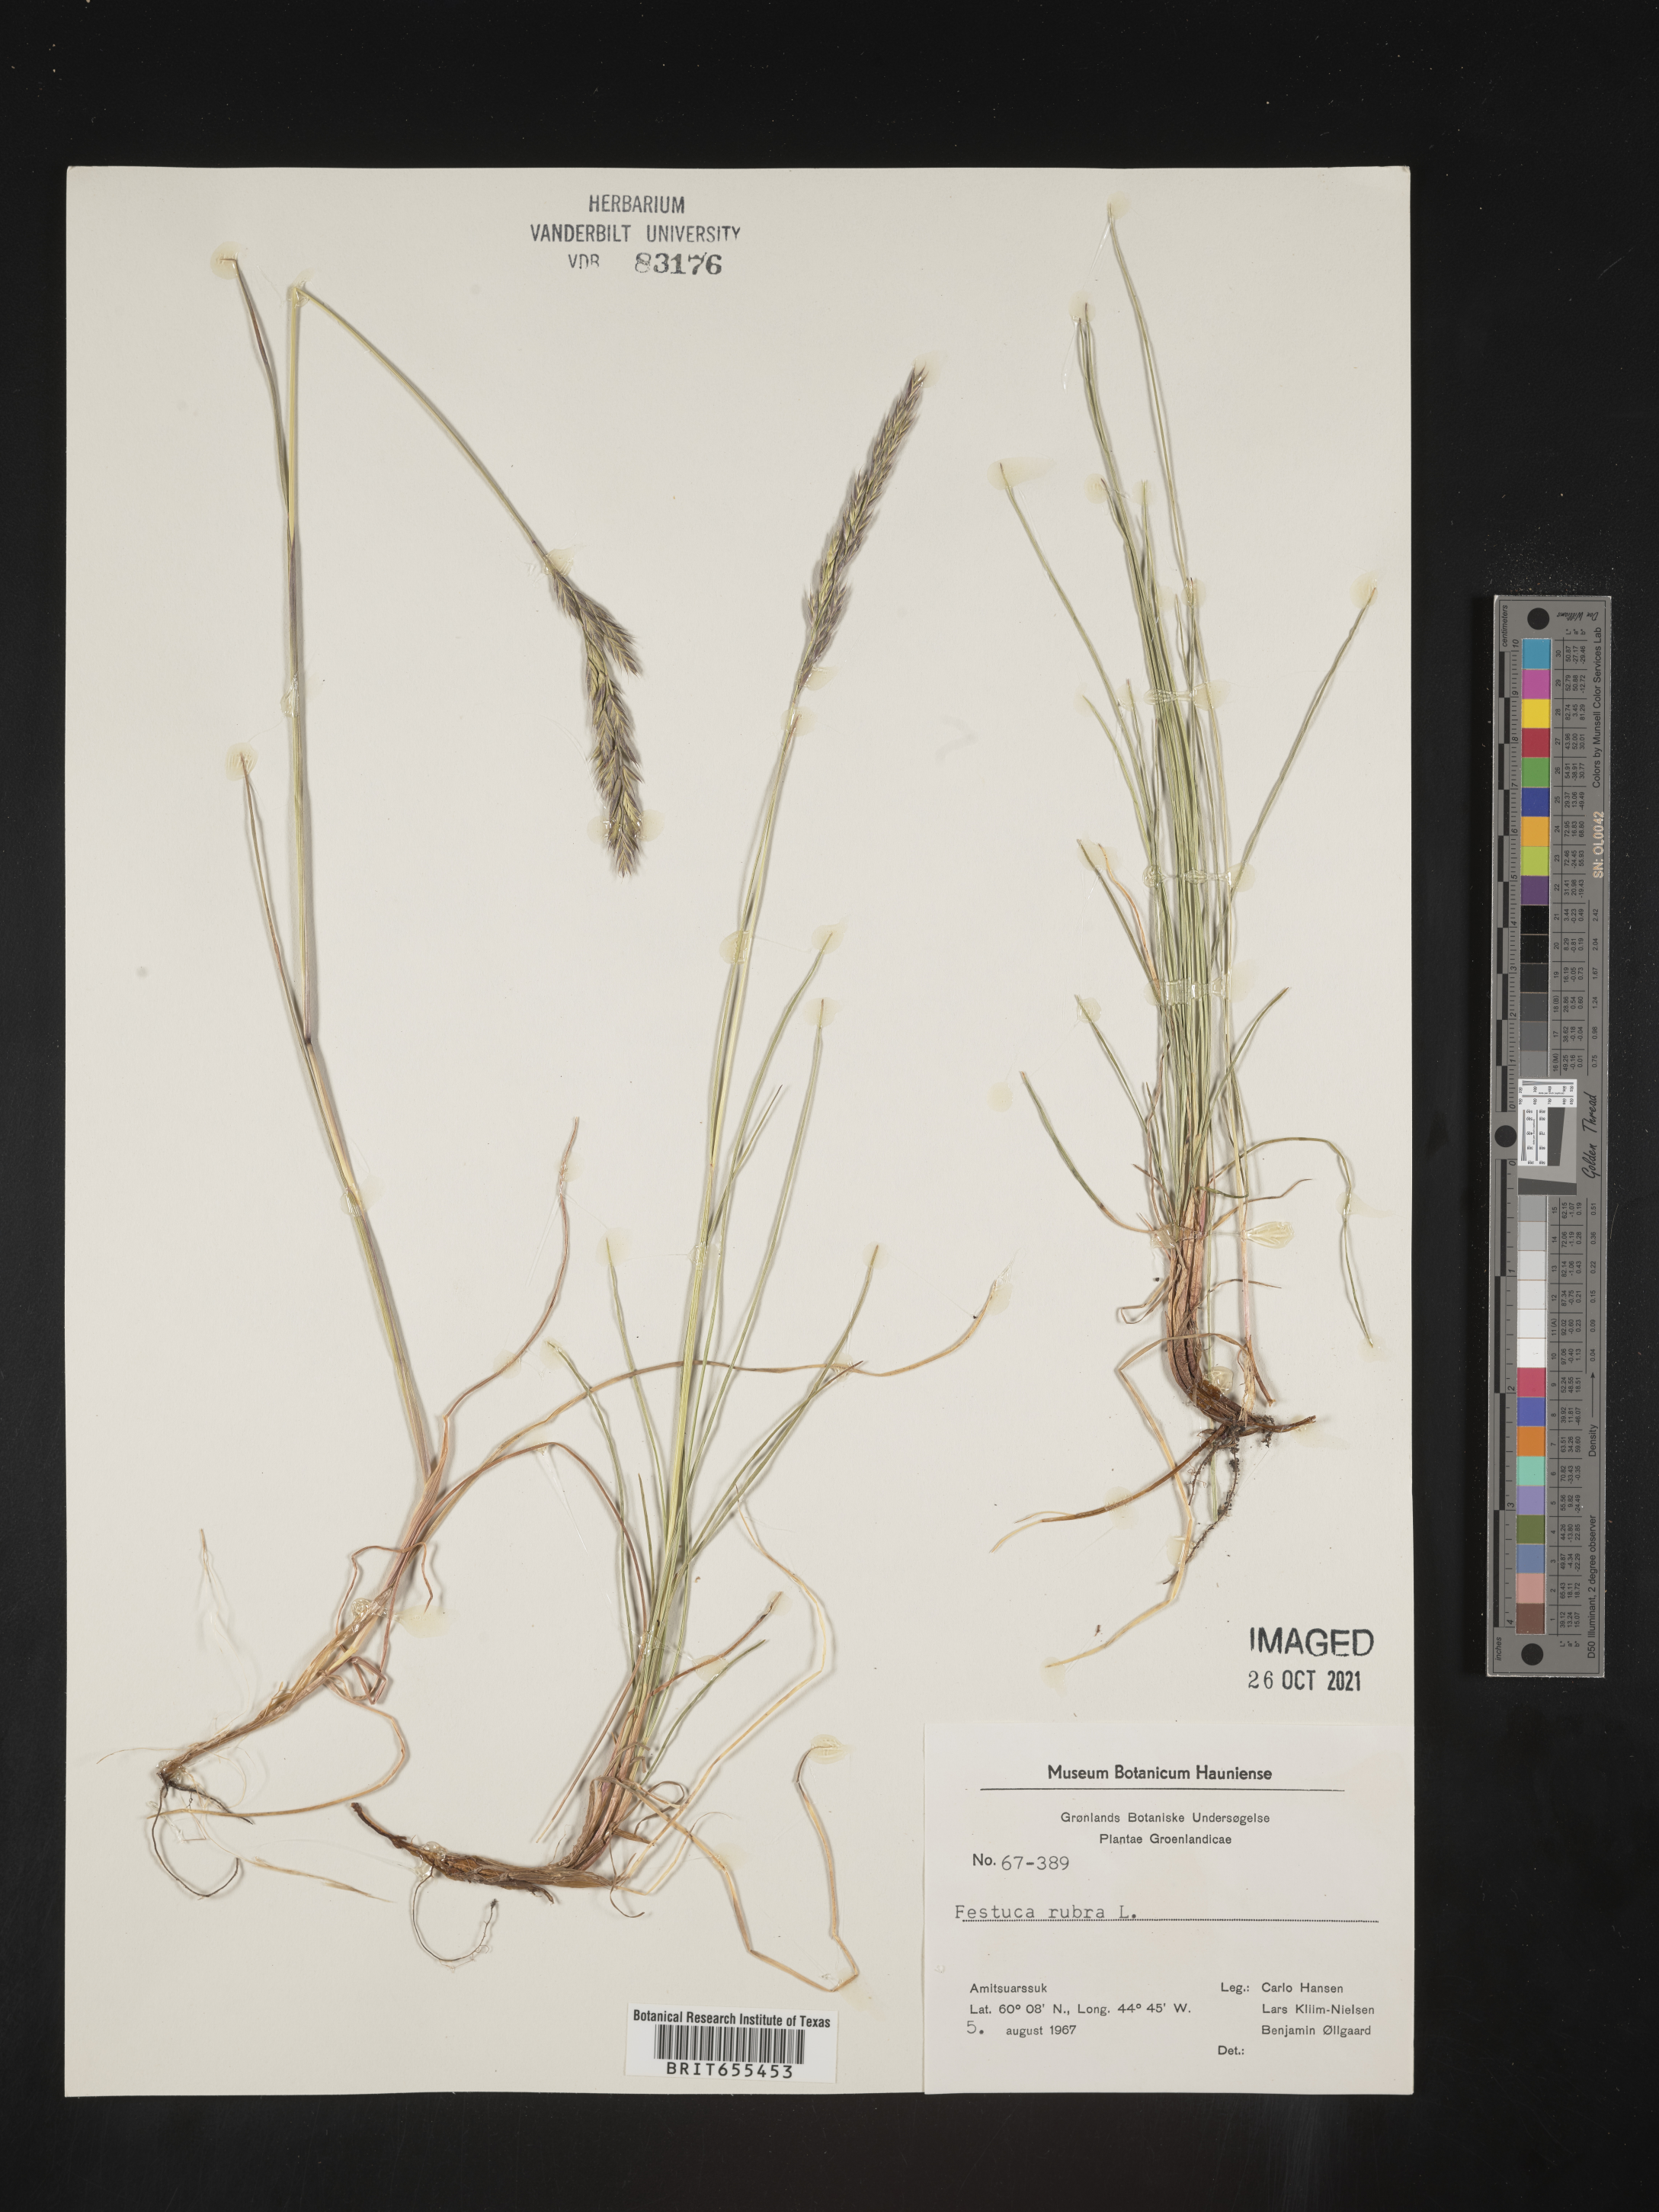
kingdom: Plantae
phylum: Tracheophyta
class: Liliopsida
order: Poales
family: Poaceae
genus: Festuca
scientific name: Festuca
